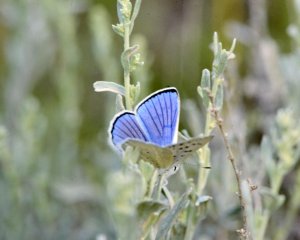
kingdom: Animalia
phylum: Arthropoda
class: Insecta
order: Lepidoptera
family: Lycaenidae
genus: Lycaena
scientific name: Lycaena heteronea
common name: Blue Copper
